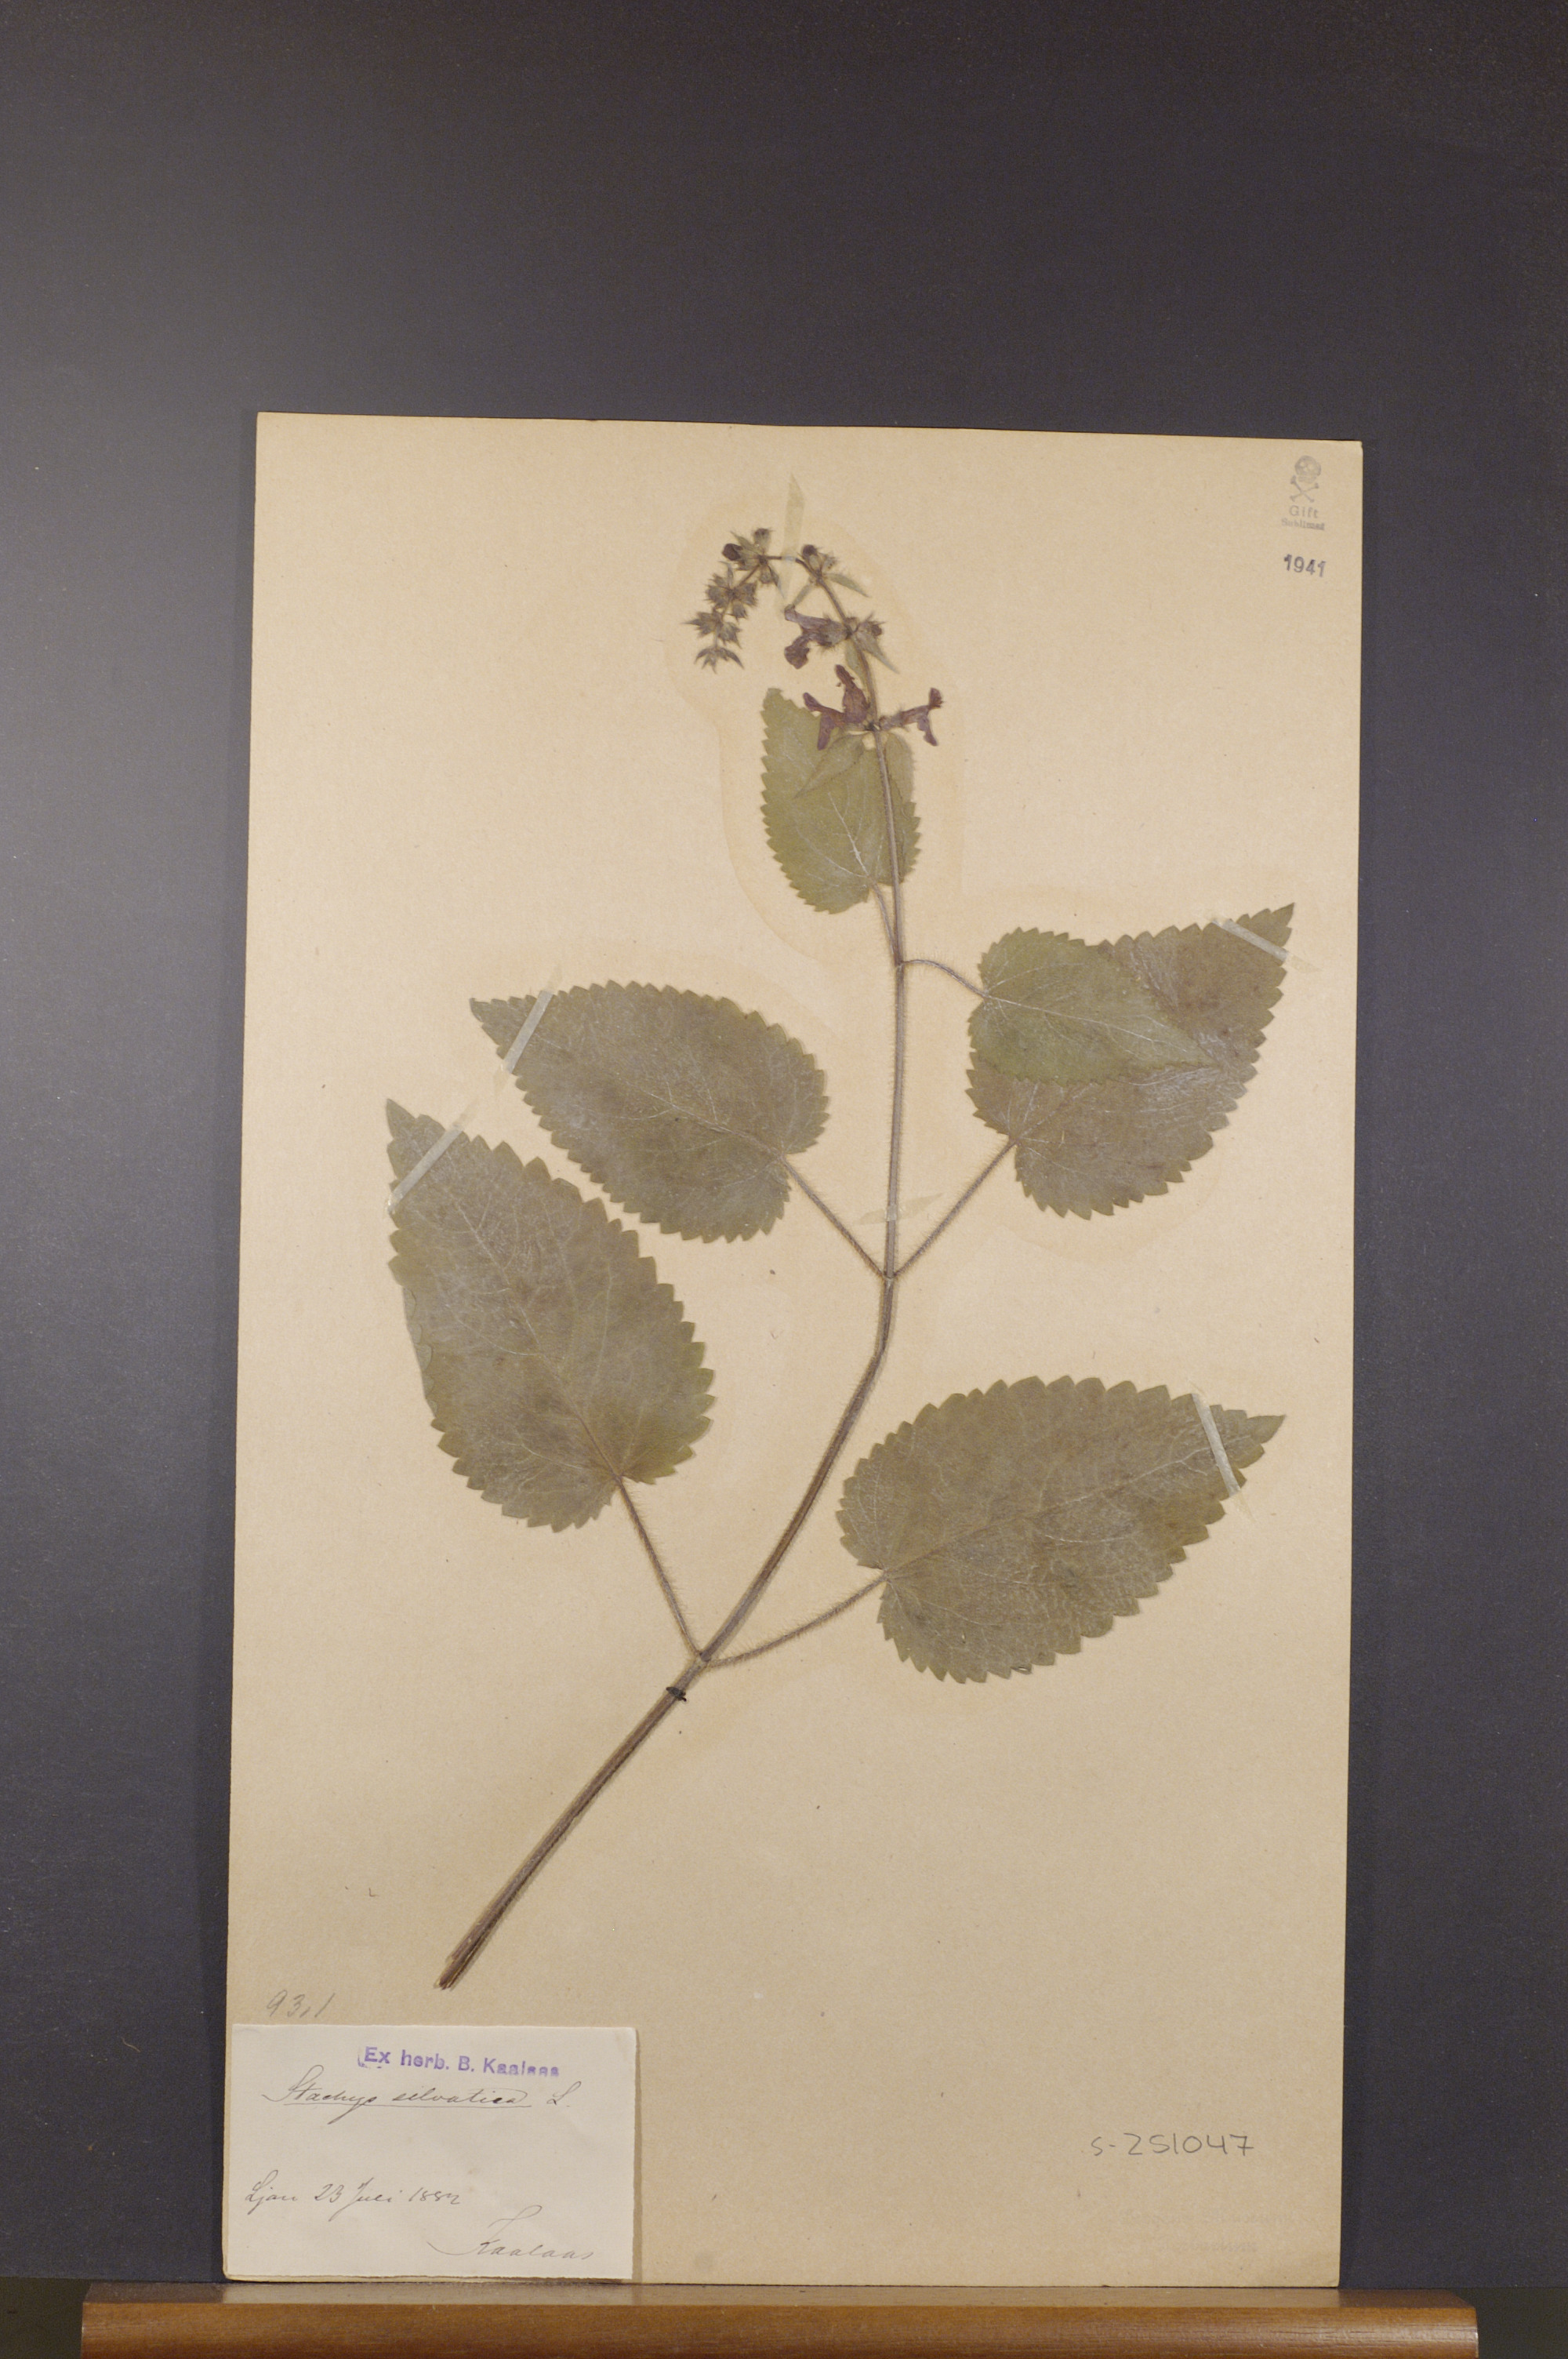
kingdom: Plantae
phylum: Tracheophyta
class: Magnoliopsida
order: Lamiales
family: Lamiaceae
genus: Stachys
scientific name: Stachys sylvatica
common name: Hedge woundwort
